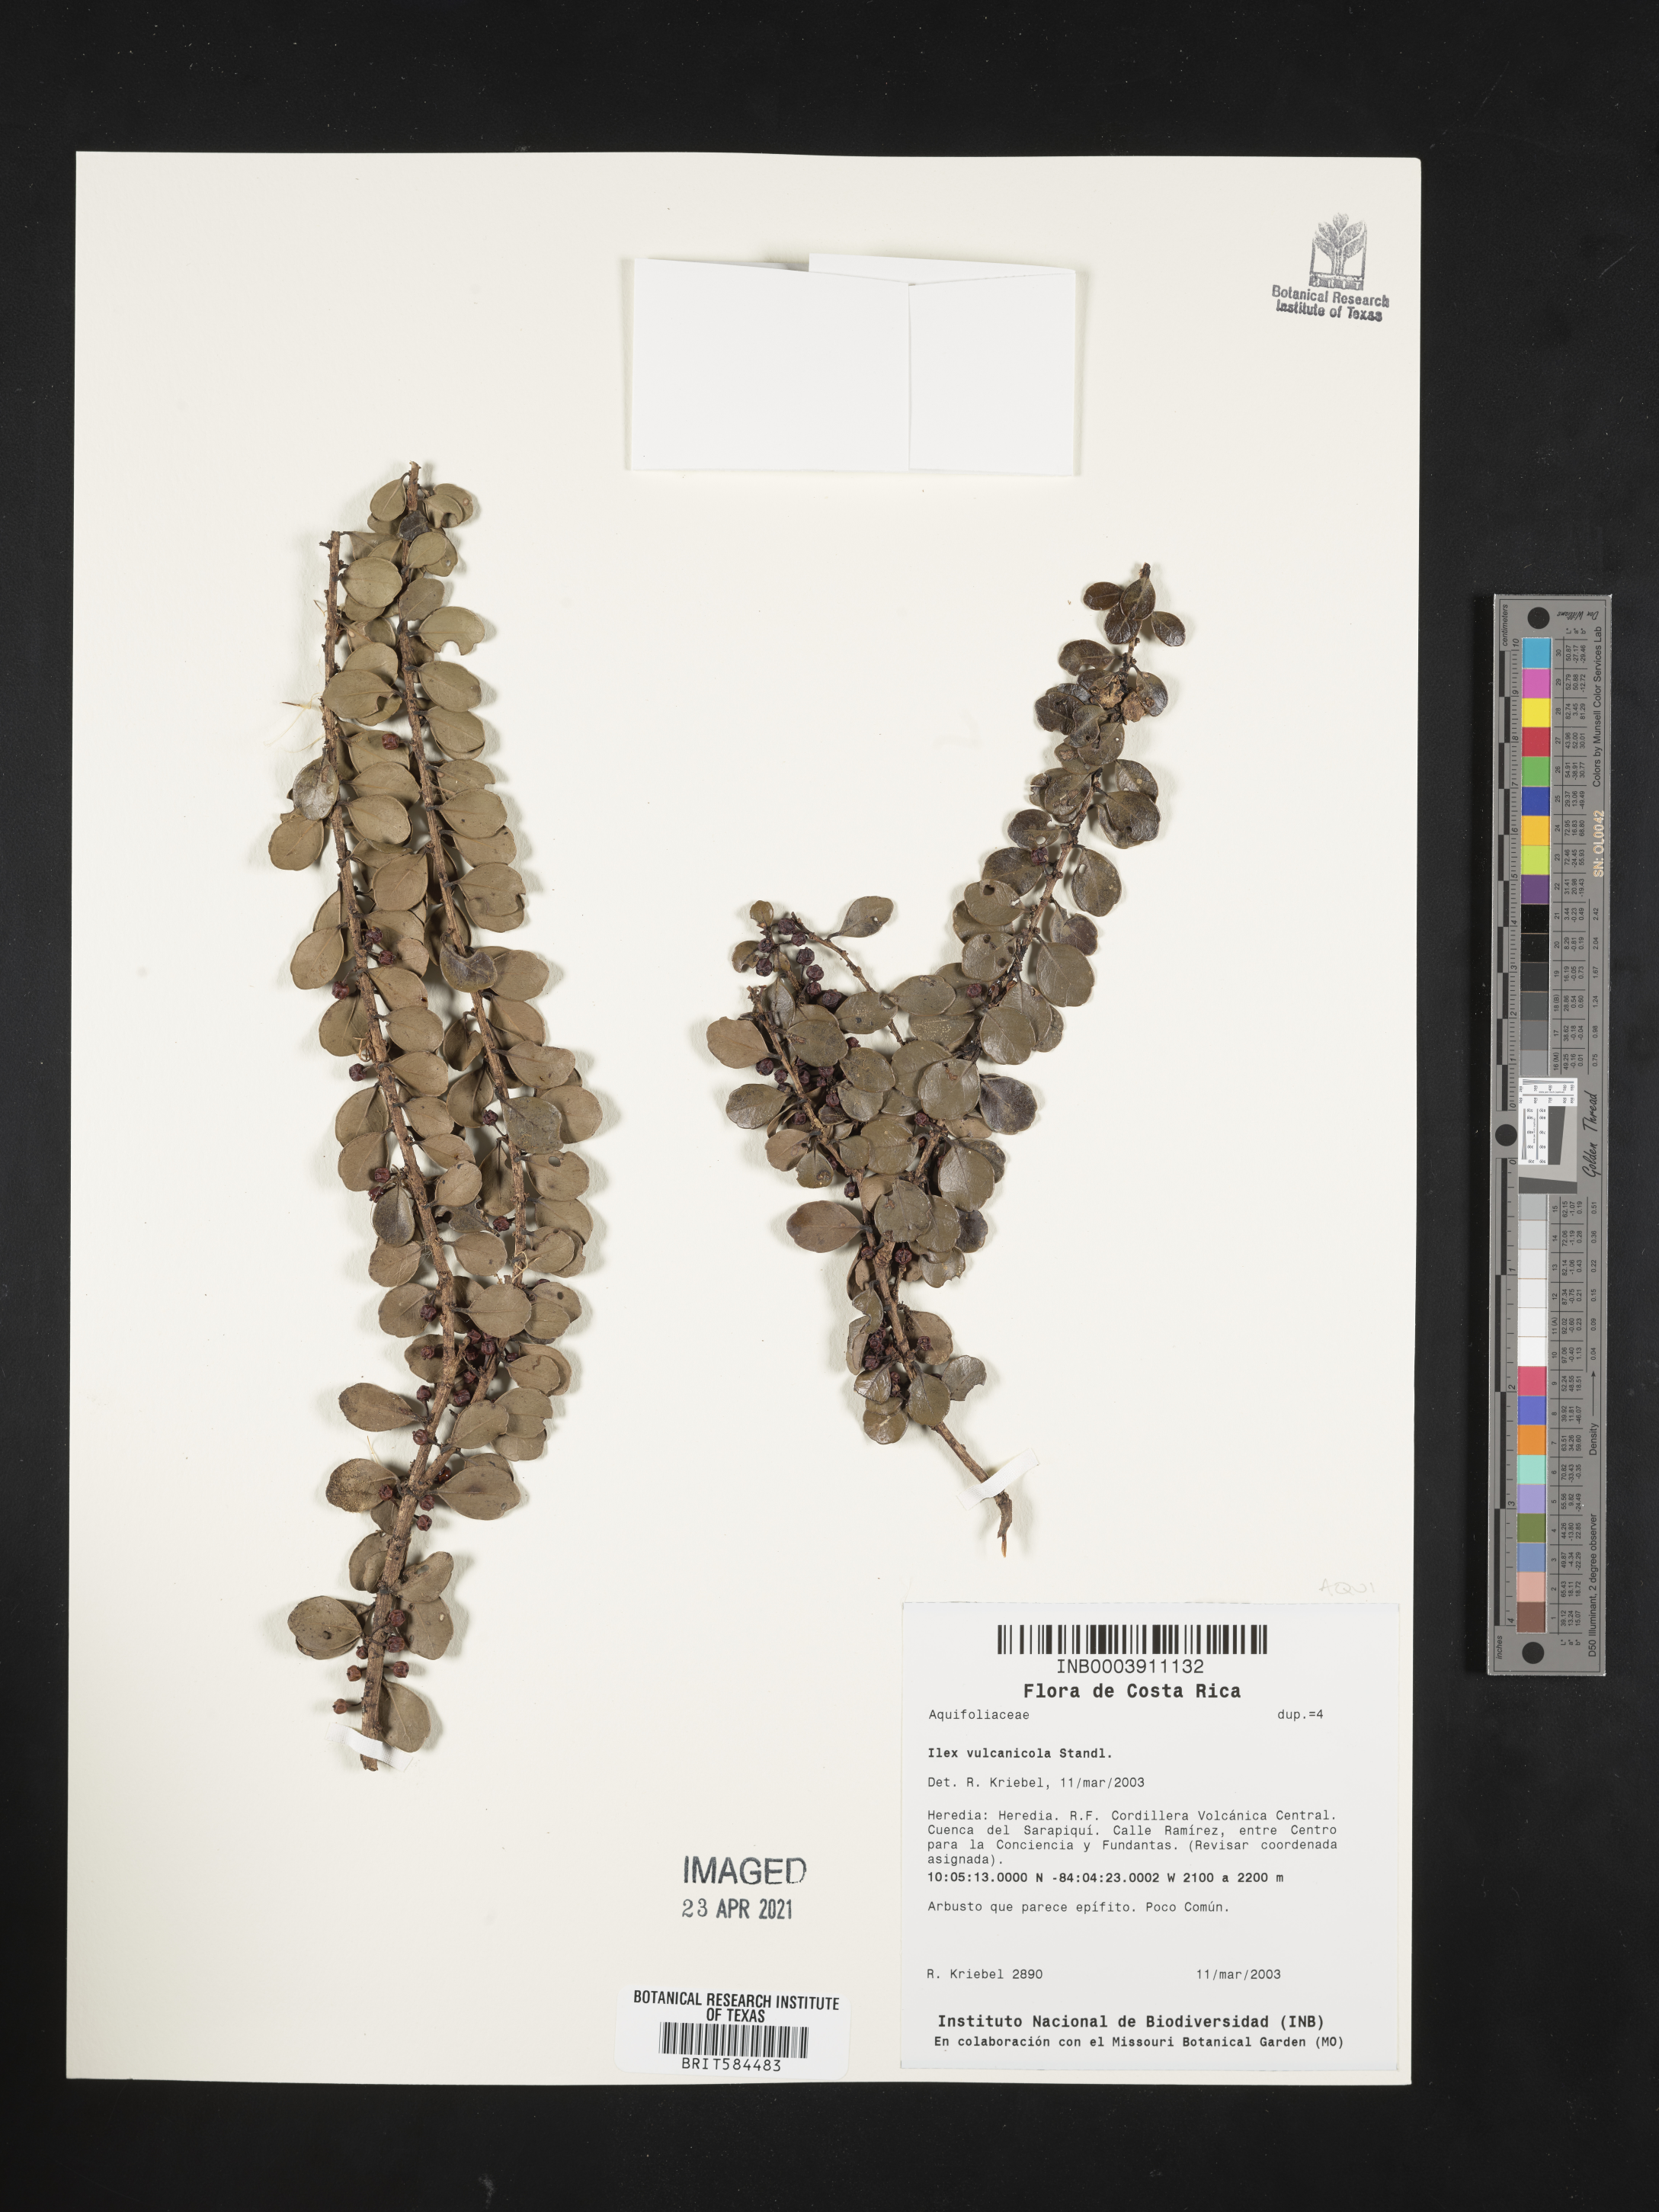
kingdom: Plantae
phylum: Tracheophyta
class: Magnoliopsida
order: Aquifoliales
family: Aquifoliaceae
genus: Ilex
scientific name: Ilex vulcanicola
